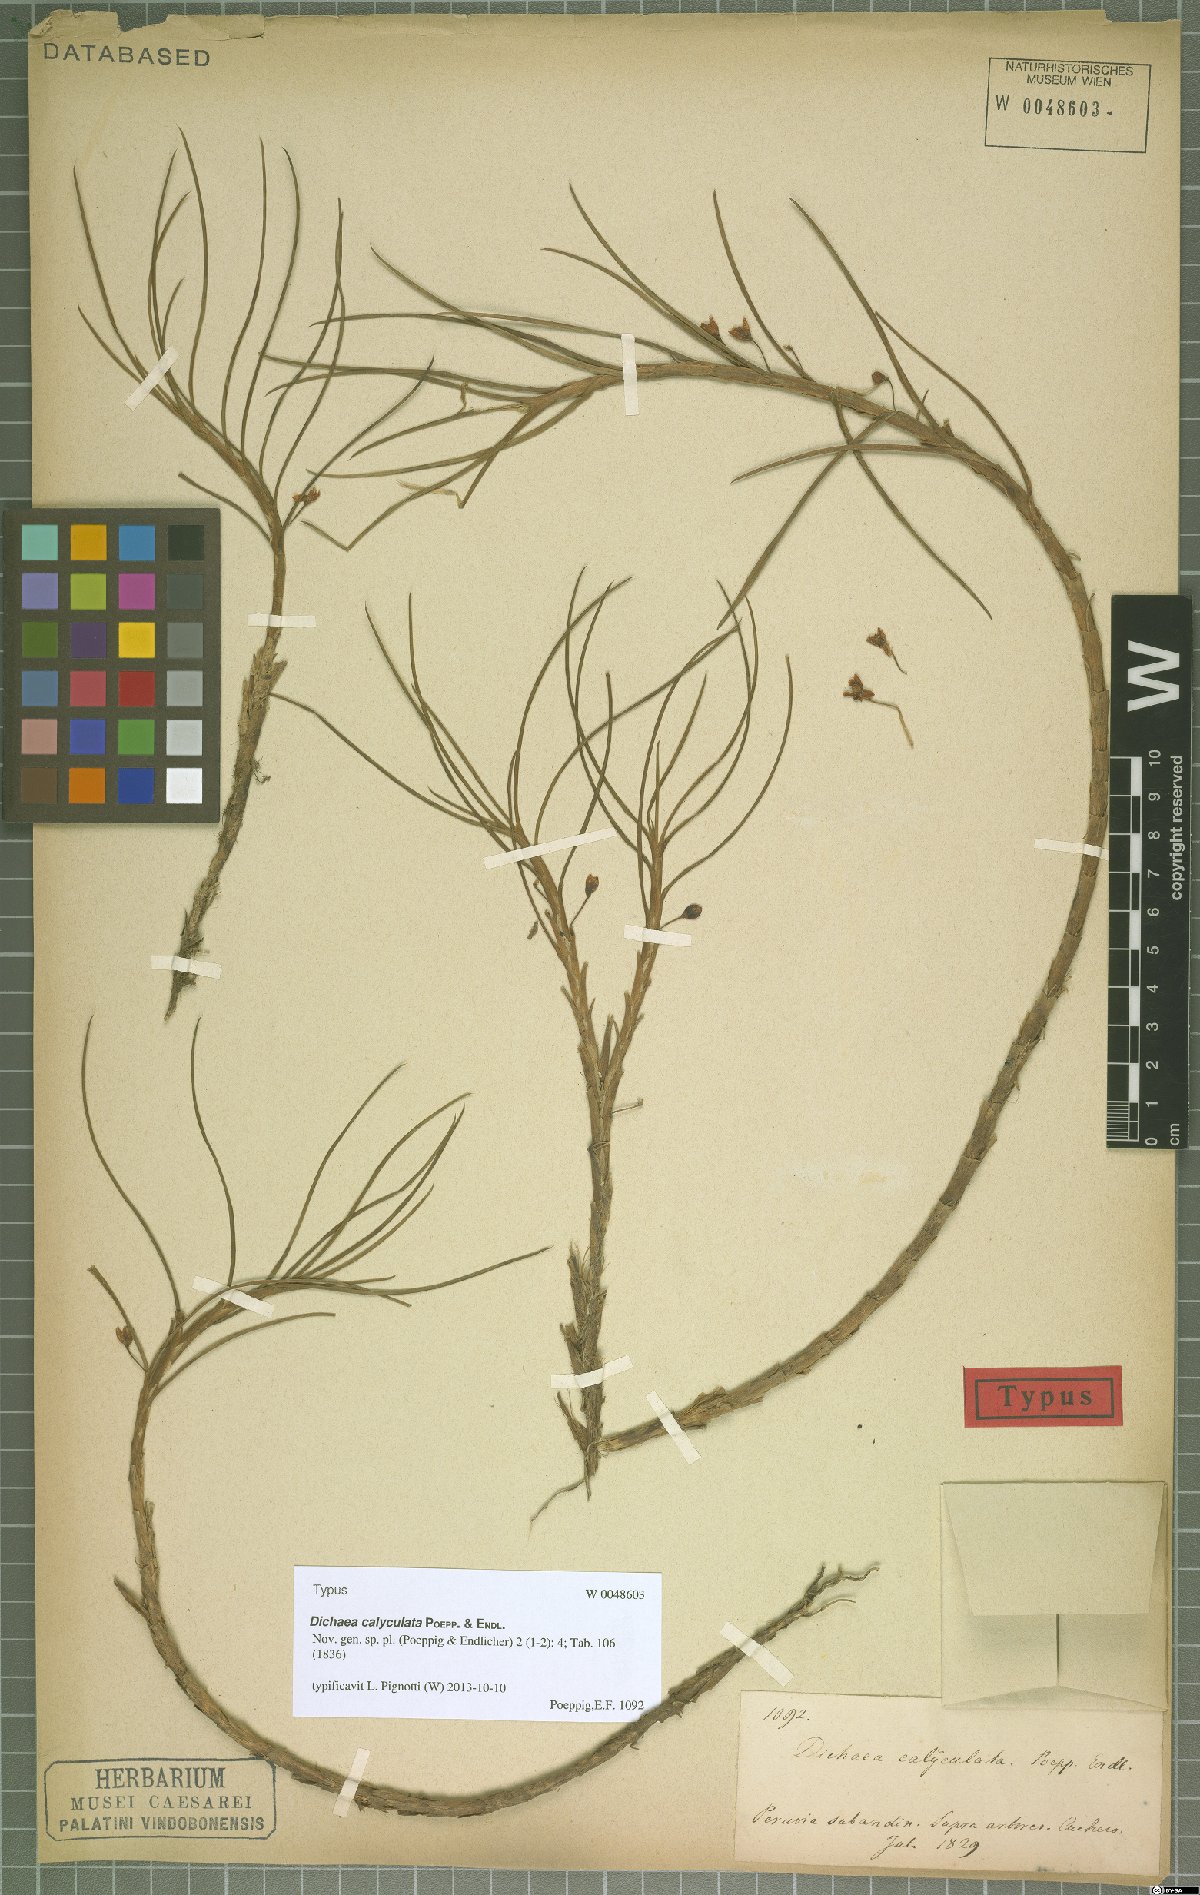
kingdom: Plantae
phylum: Tracheophyta
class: Liliopsida
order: Asparagales
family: Orchidaceae
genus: Dichaea
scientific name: Dichaea calyculata
